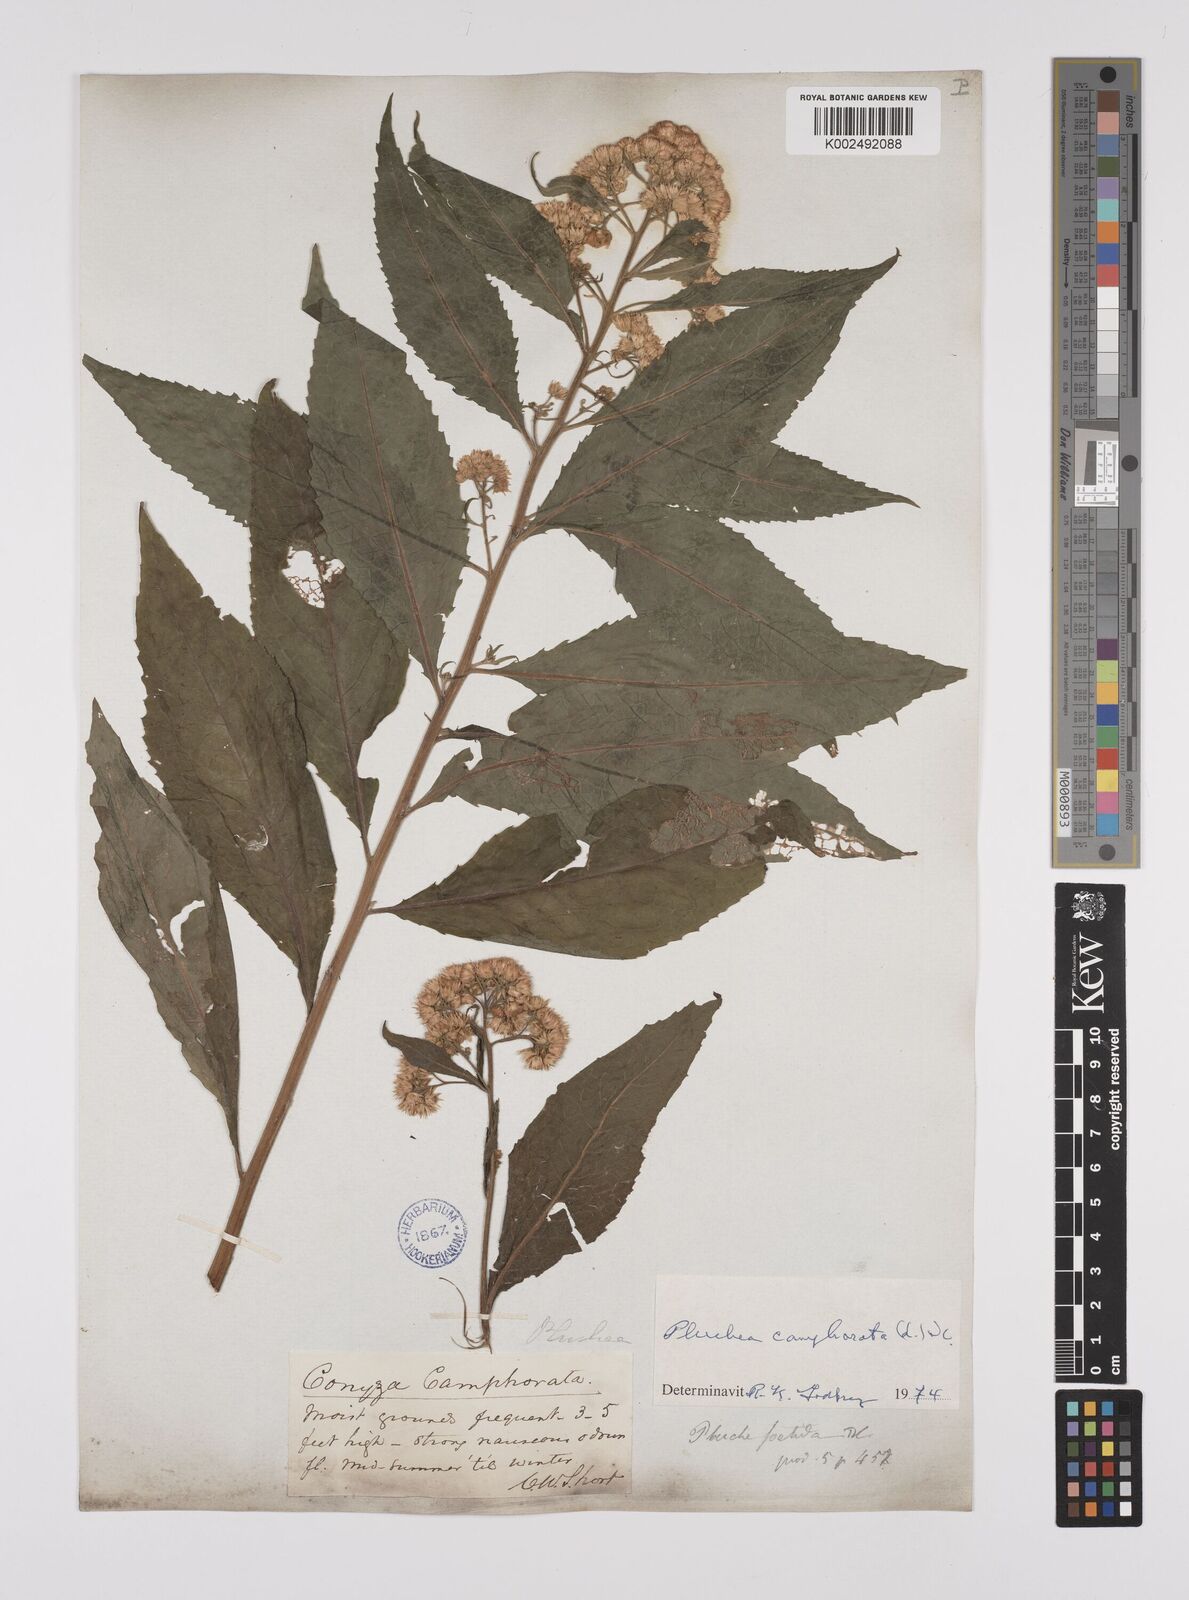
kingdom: Plantae
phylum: Tracheophyta
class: Magnoliopsida
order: Asterales
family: Asteraceae
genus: Pluchea
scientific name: Pluchea camphorata
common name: Camphor pluchea
